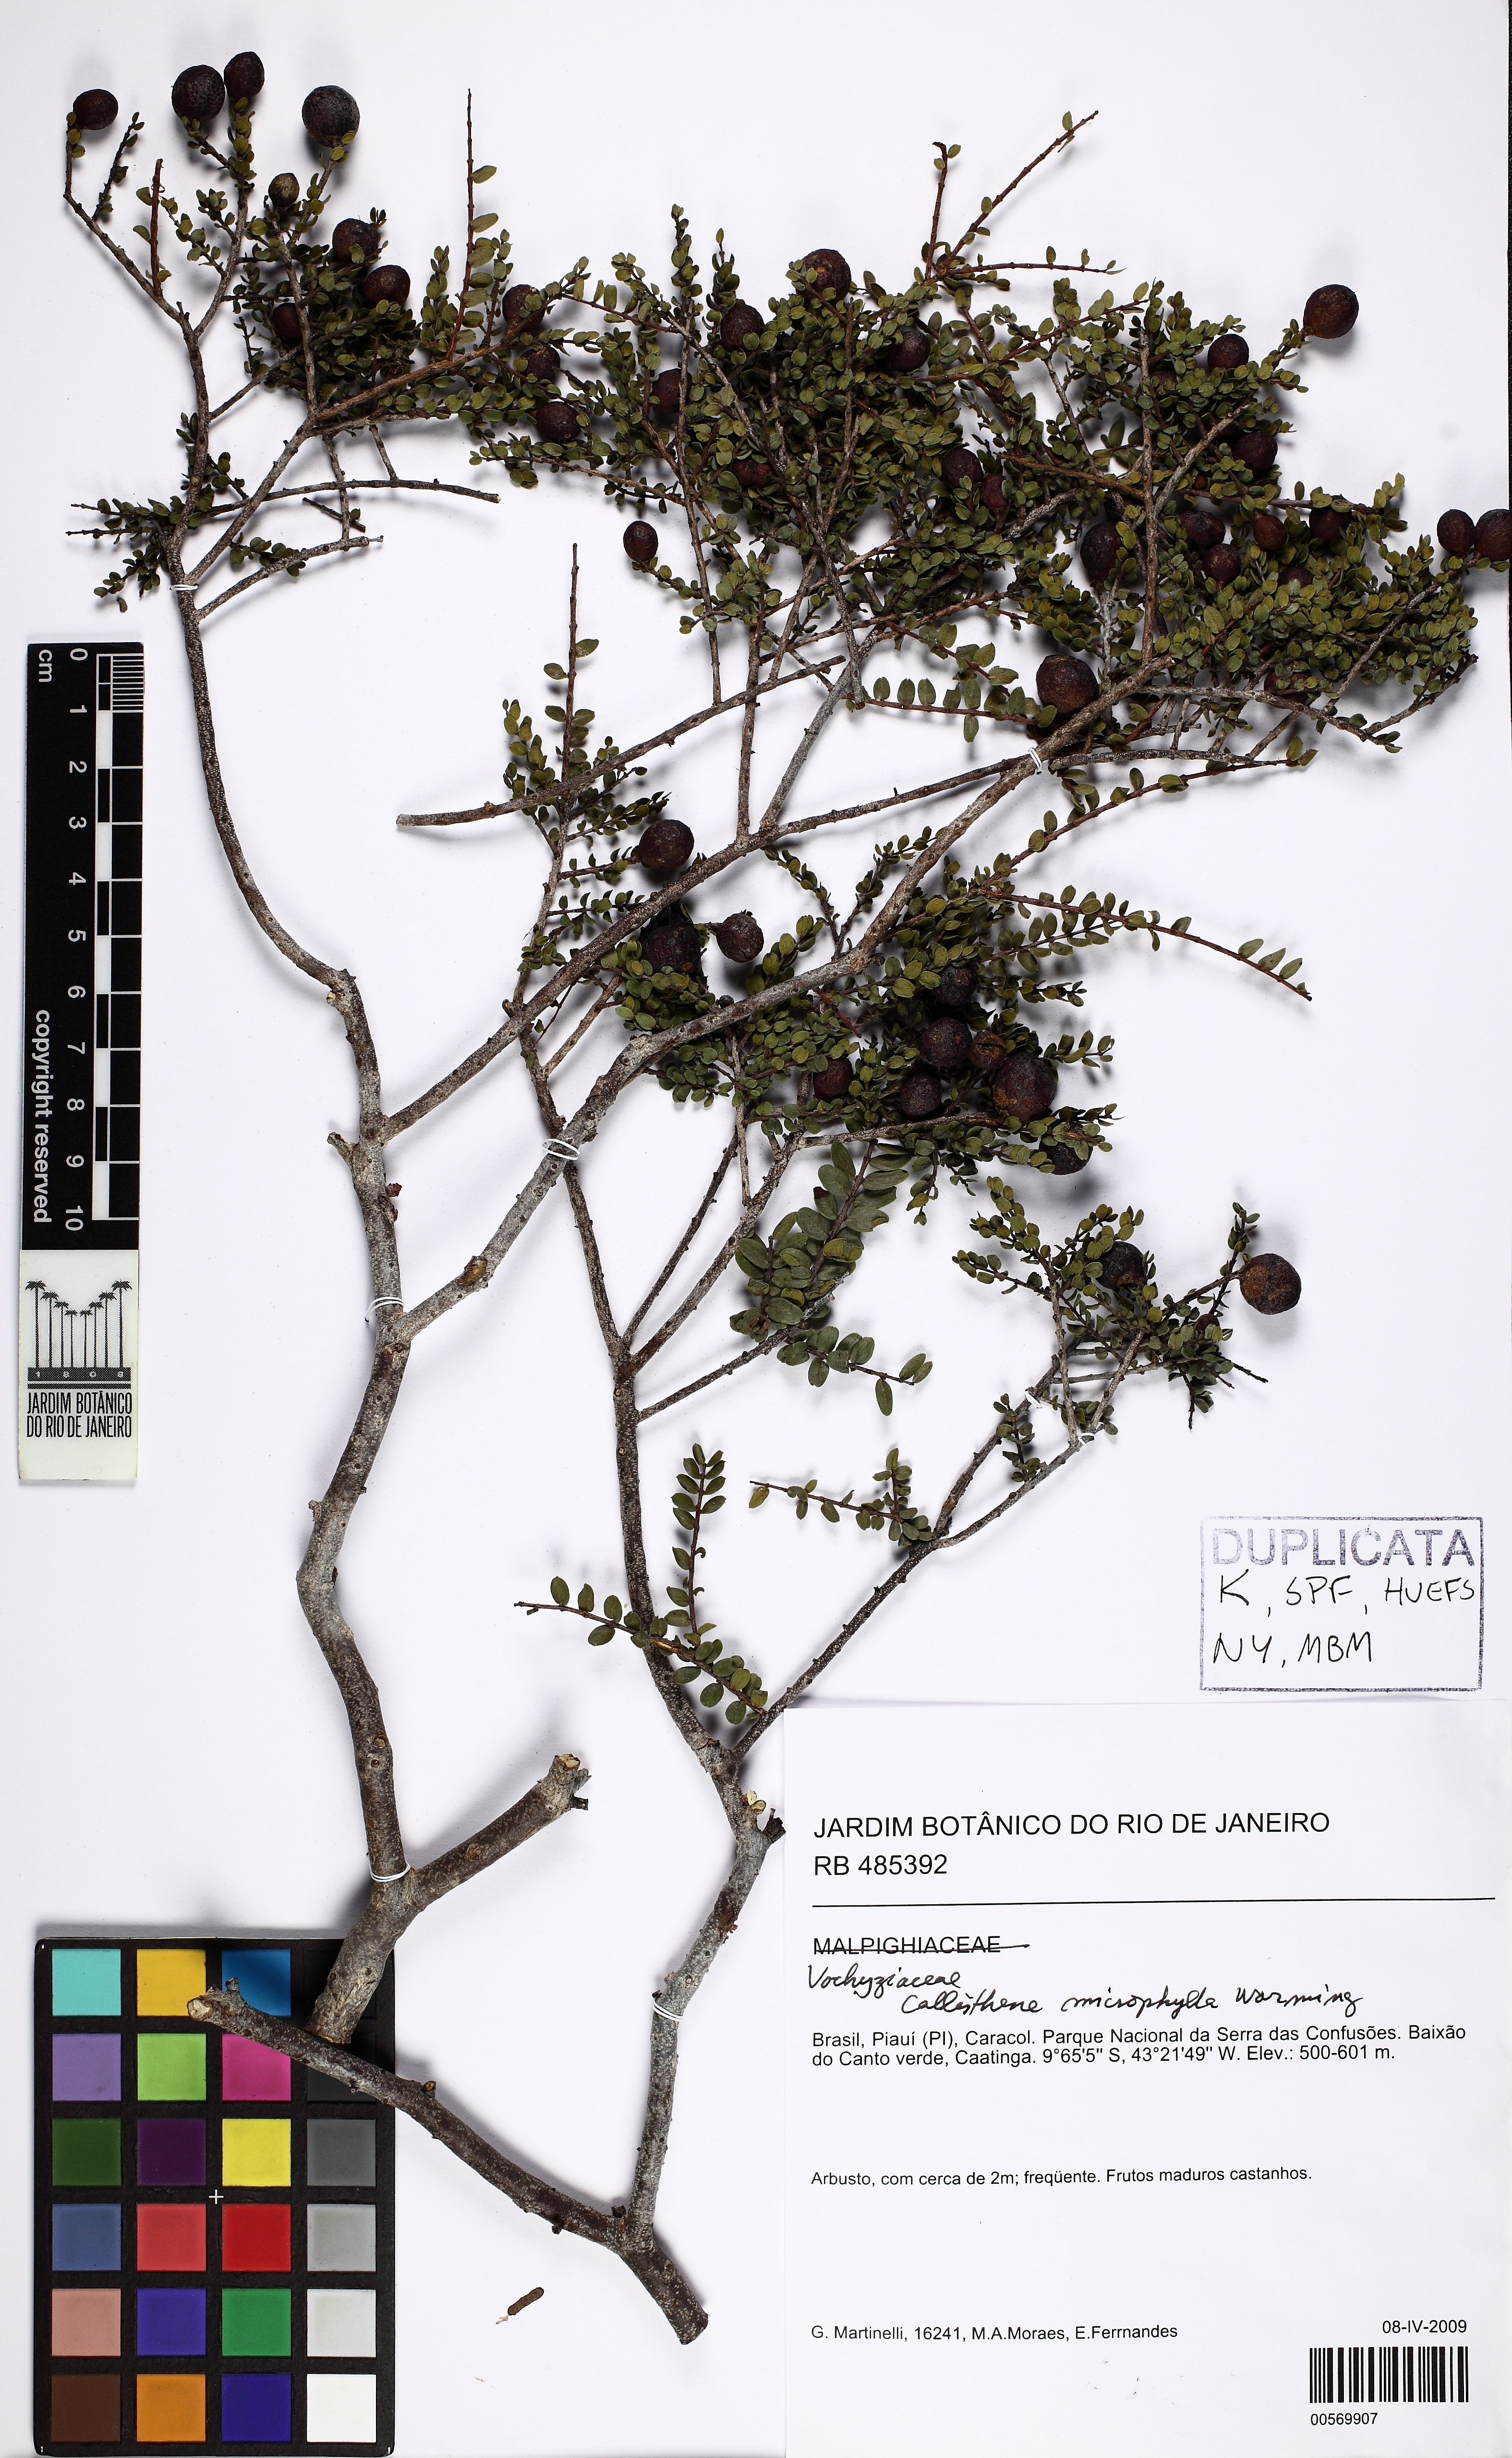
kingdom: Plantae
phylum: Tracheophyta
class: Magnoliopsida
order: Myrtales
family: Vochysiaceae
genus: Callisthene
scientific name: Callisthene microphylla
